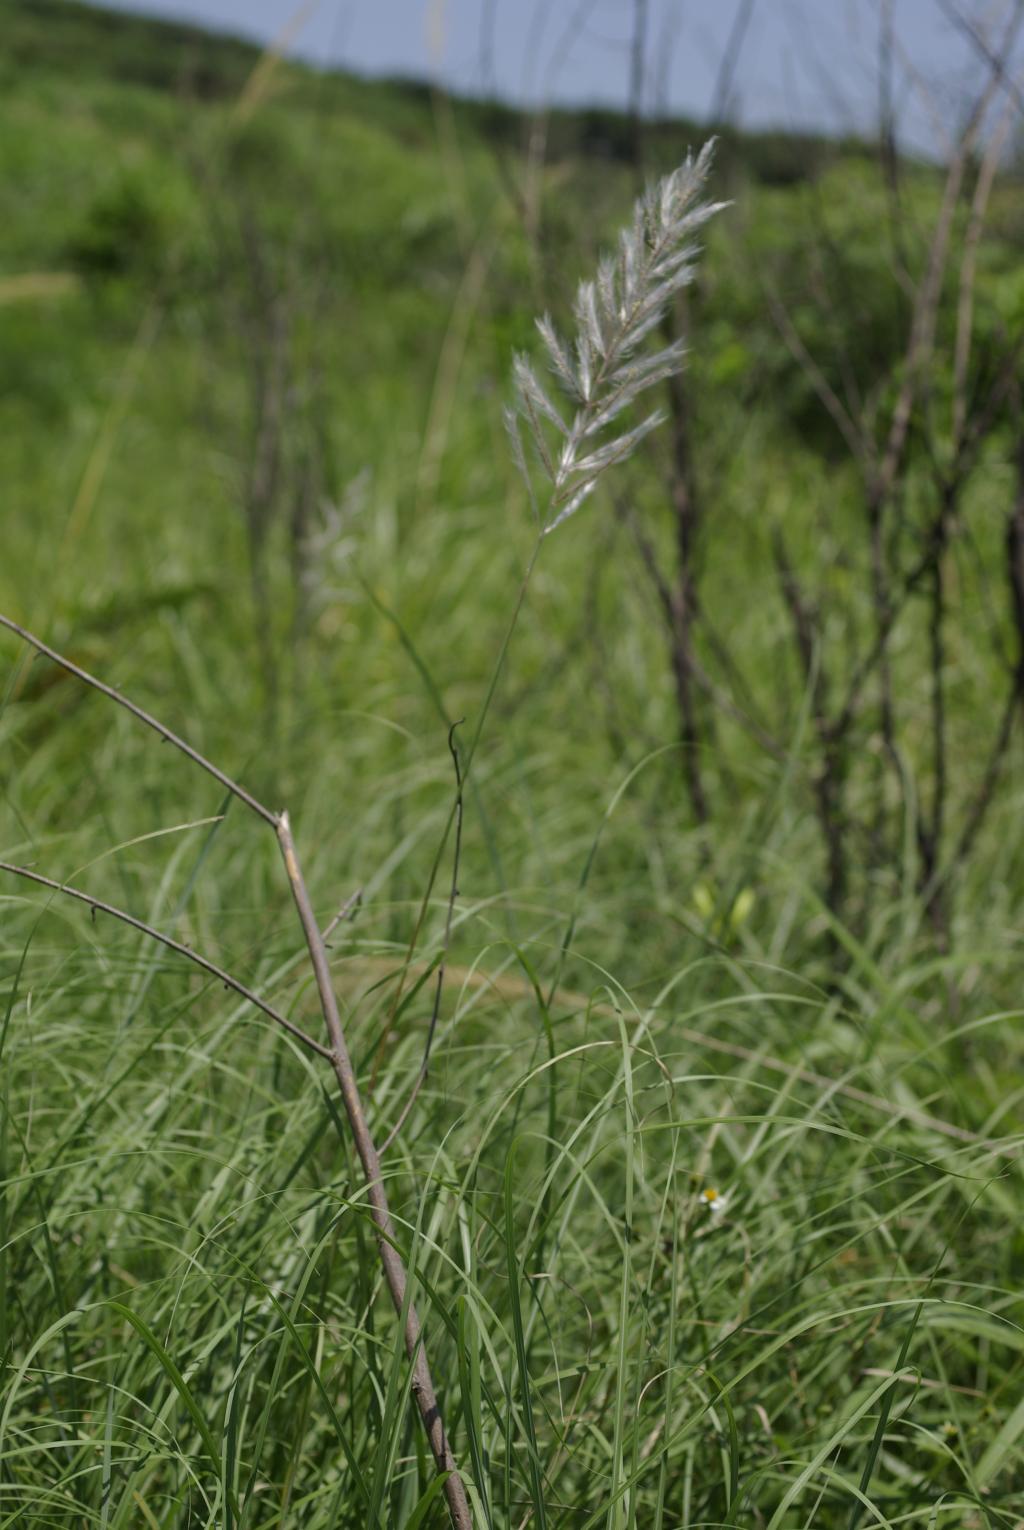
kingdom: Plantae
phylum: Tracheophyta
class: Liliopsida
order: Poales
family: Poaceae
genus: Saccharum
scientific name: Saccharum spontaneum
